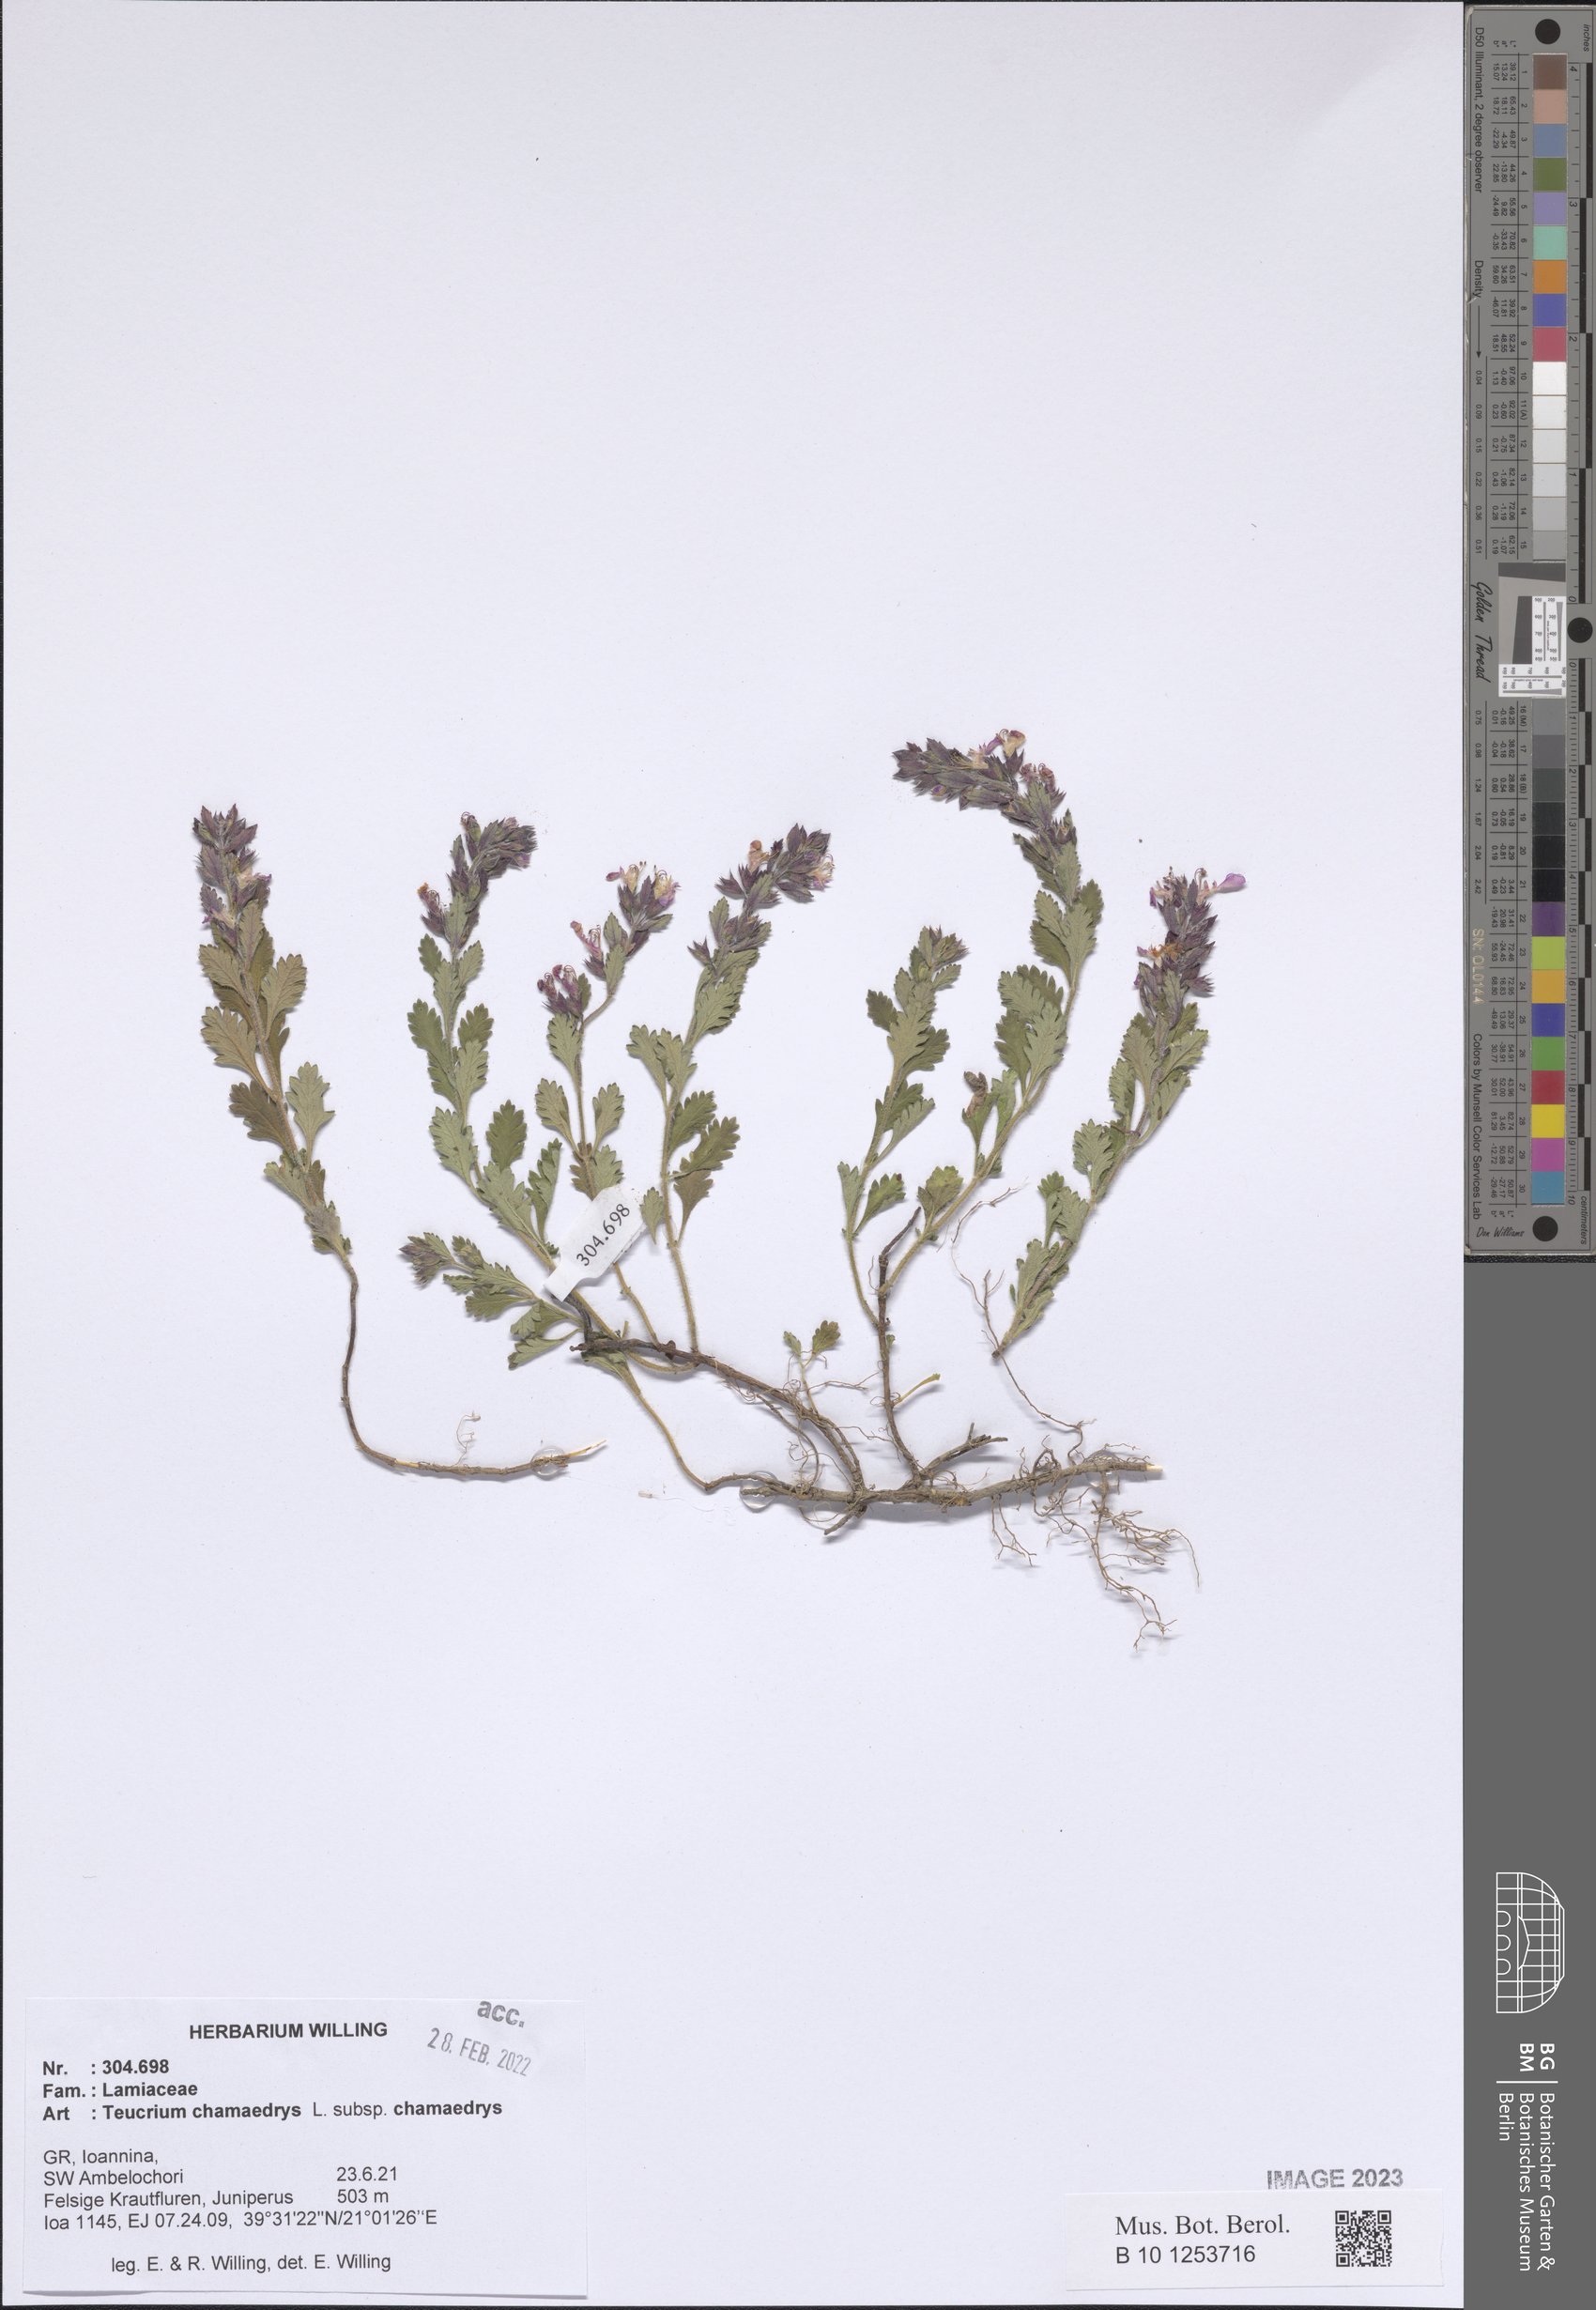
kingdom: Plantae
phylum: Tracheophyta
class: Magnoliopsida
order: Lamiales
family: Lamiaceae
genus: Teucrium
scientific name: Teucrium chamaedrys
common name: Wall germander
